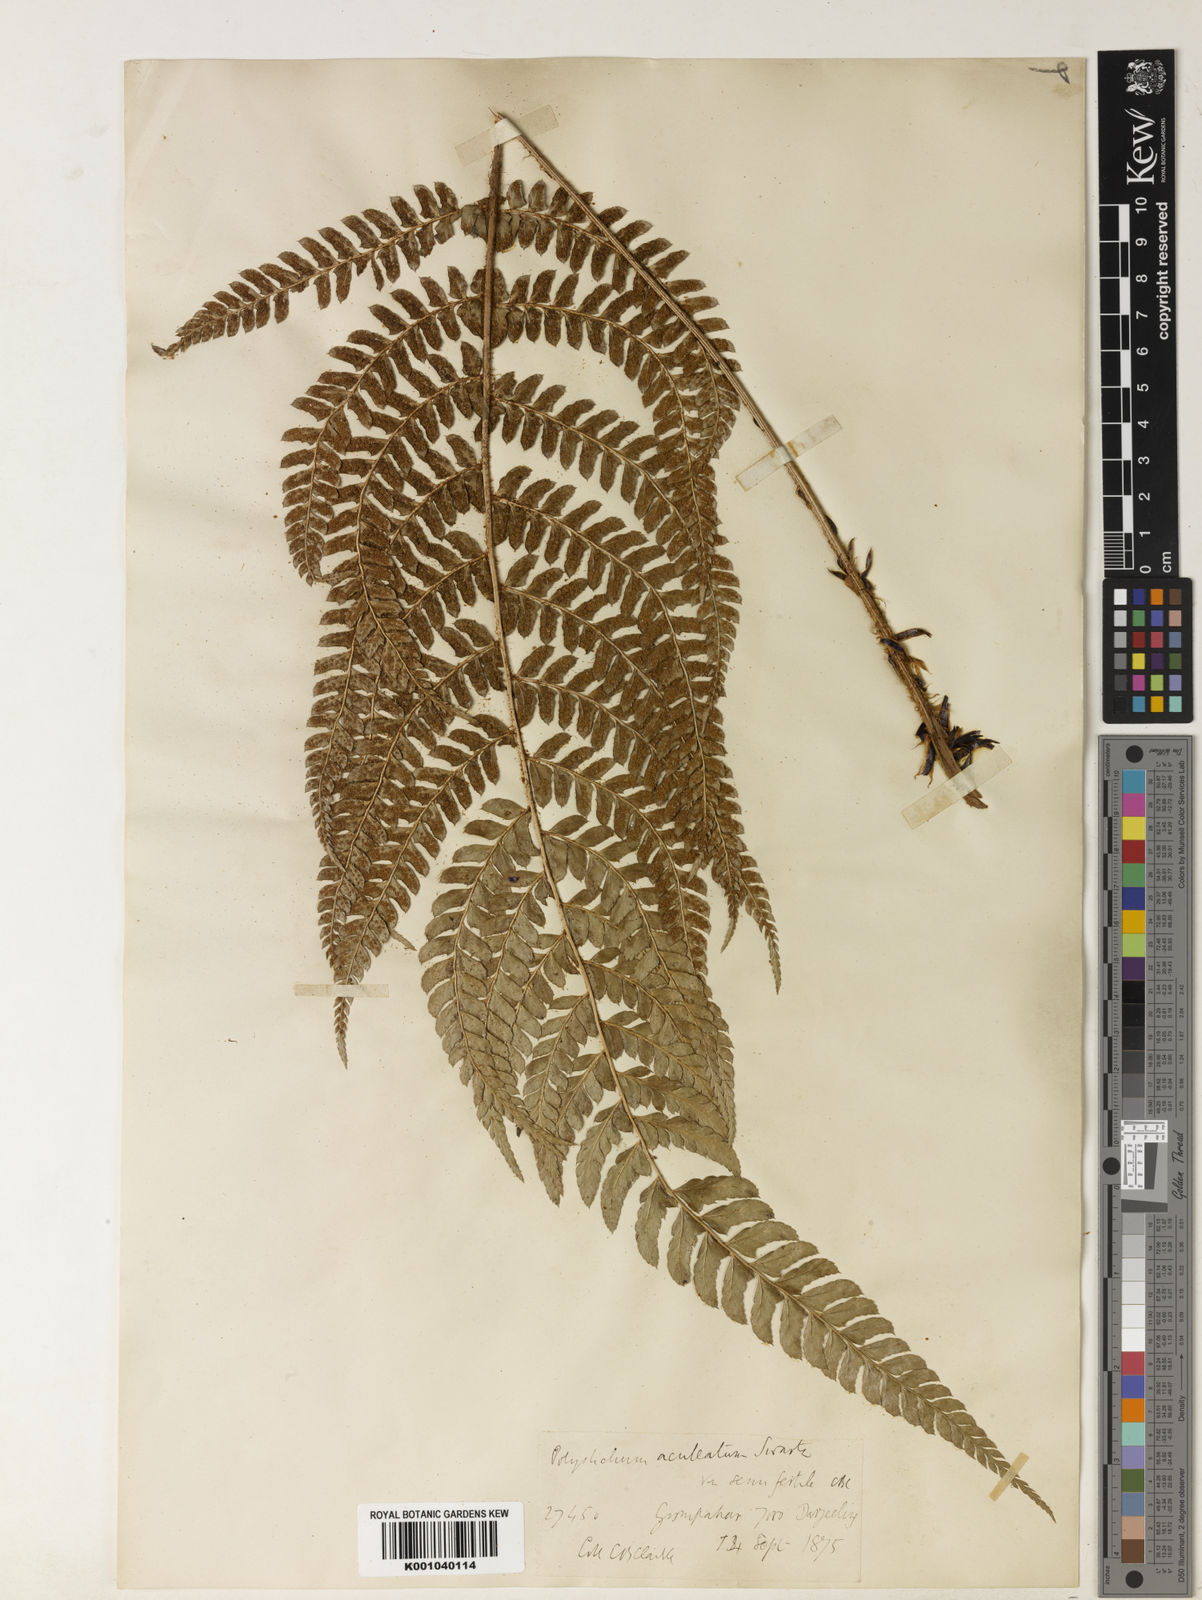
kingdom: Plantae
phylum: Tracheophyta
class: Polypodiopsida
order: Polypodiales
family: Dryopteridaceae
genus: Polystichum
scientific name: Polystichum semifertile
